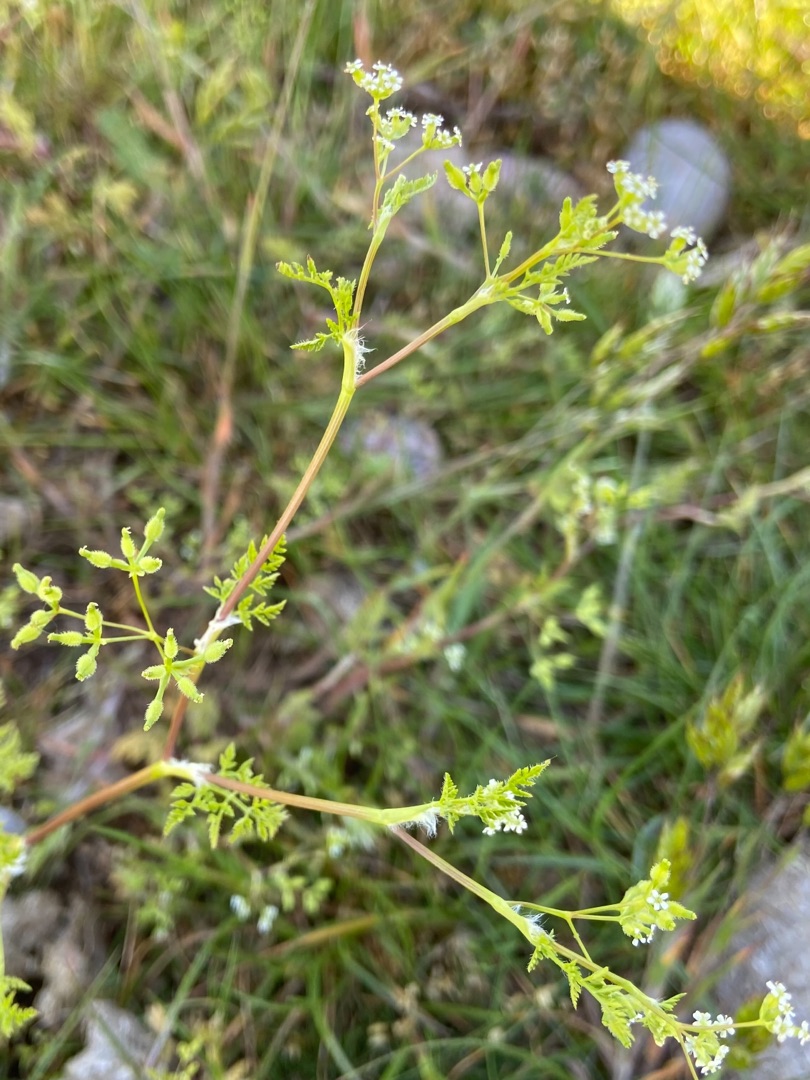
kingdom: Plantae
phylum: Tracheophyta
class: Magnoliopsida
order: Apiales
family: Apiaceae
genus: Anthriscus
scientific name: Anthriscus caucalis
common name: Gærde-kørvel
